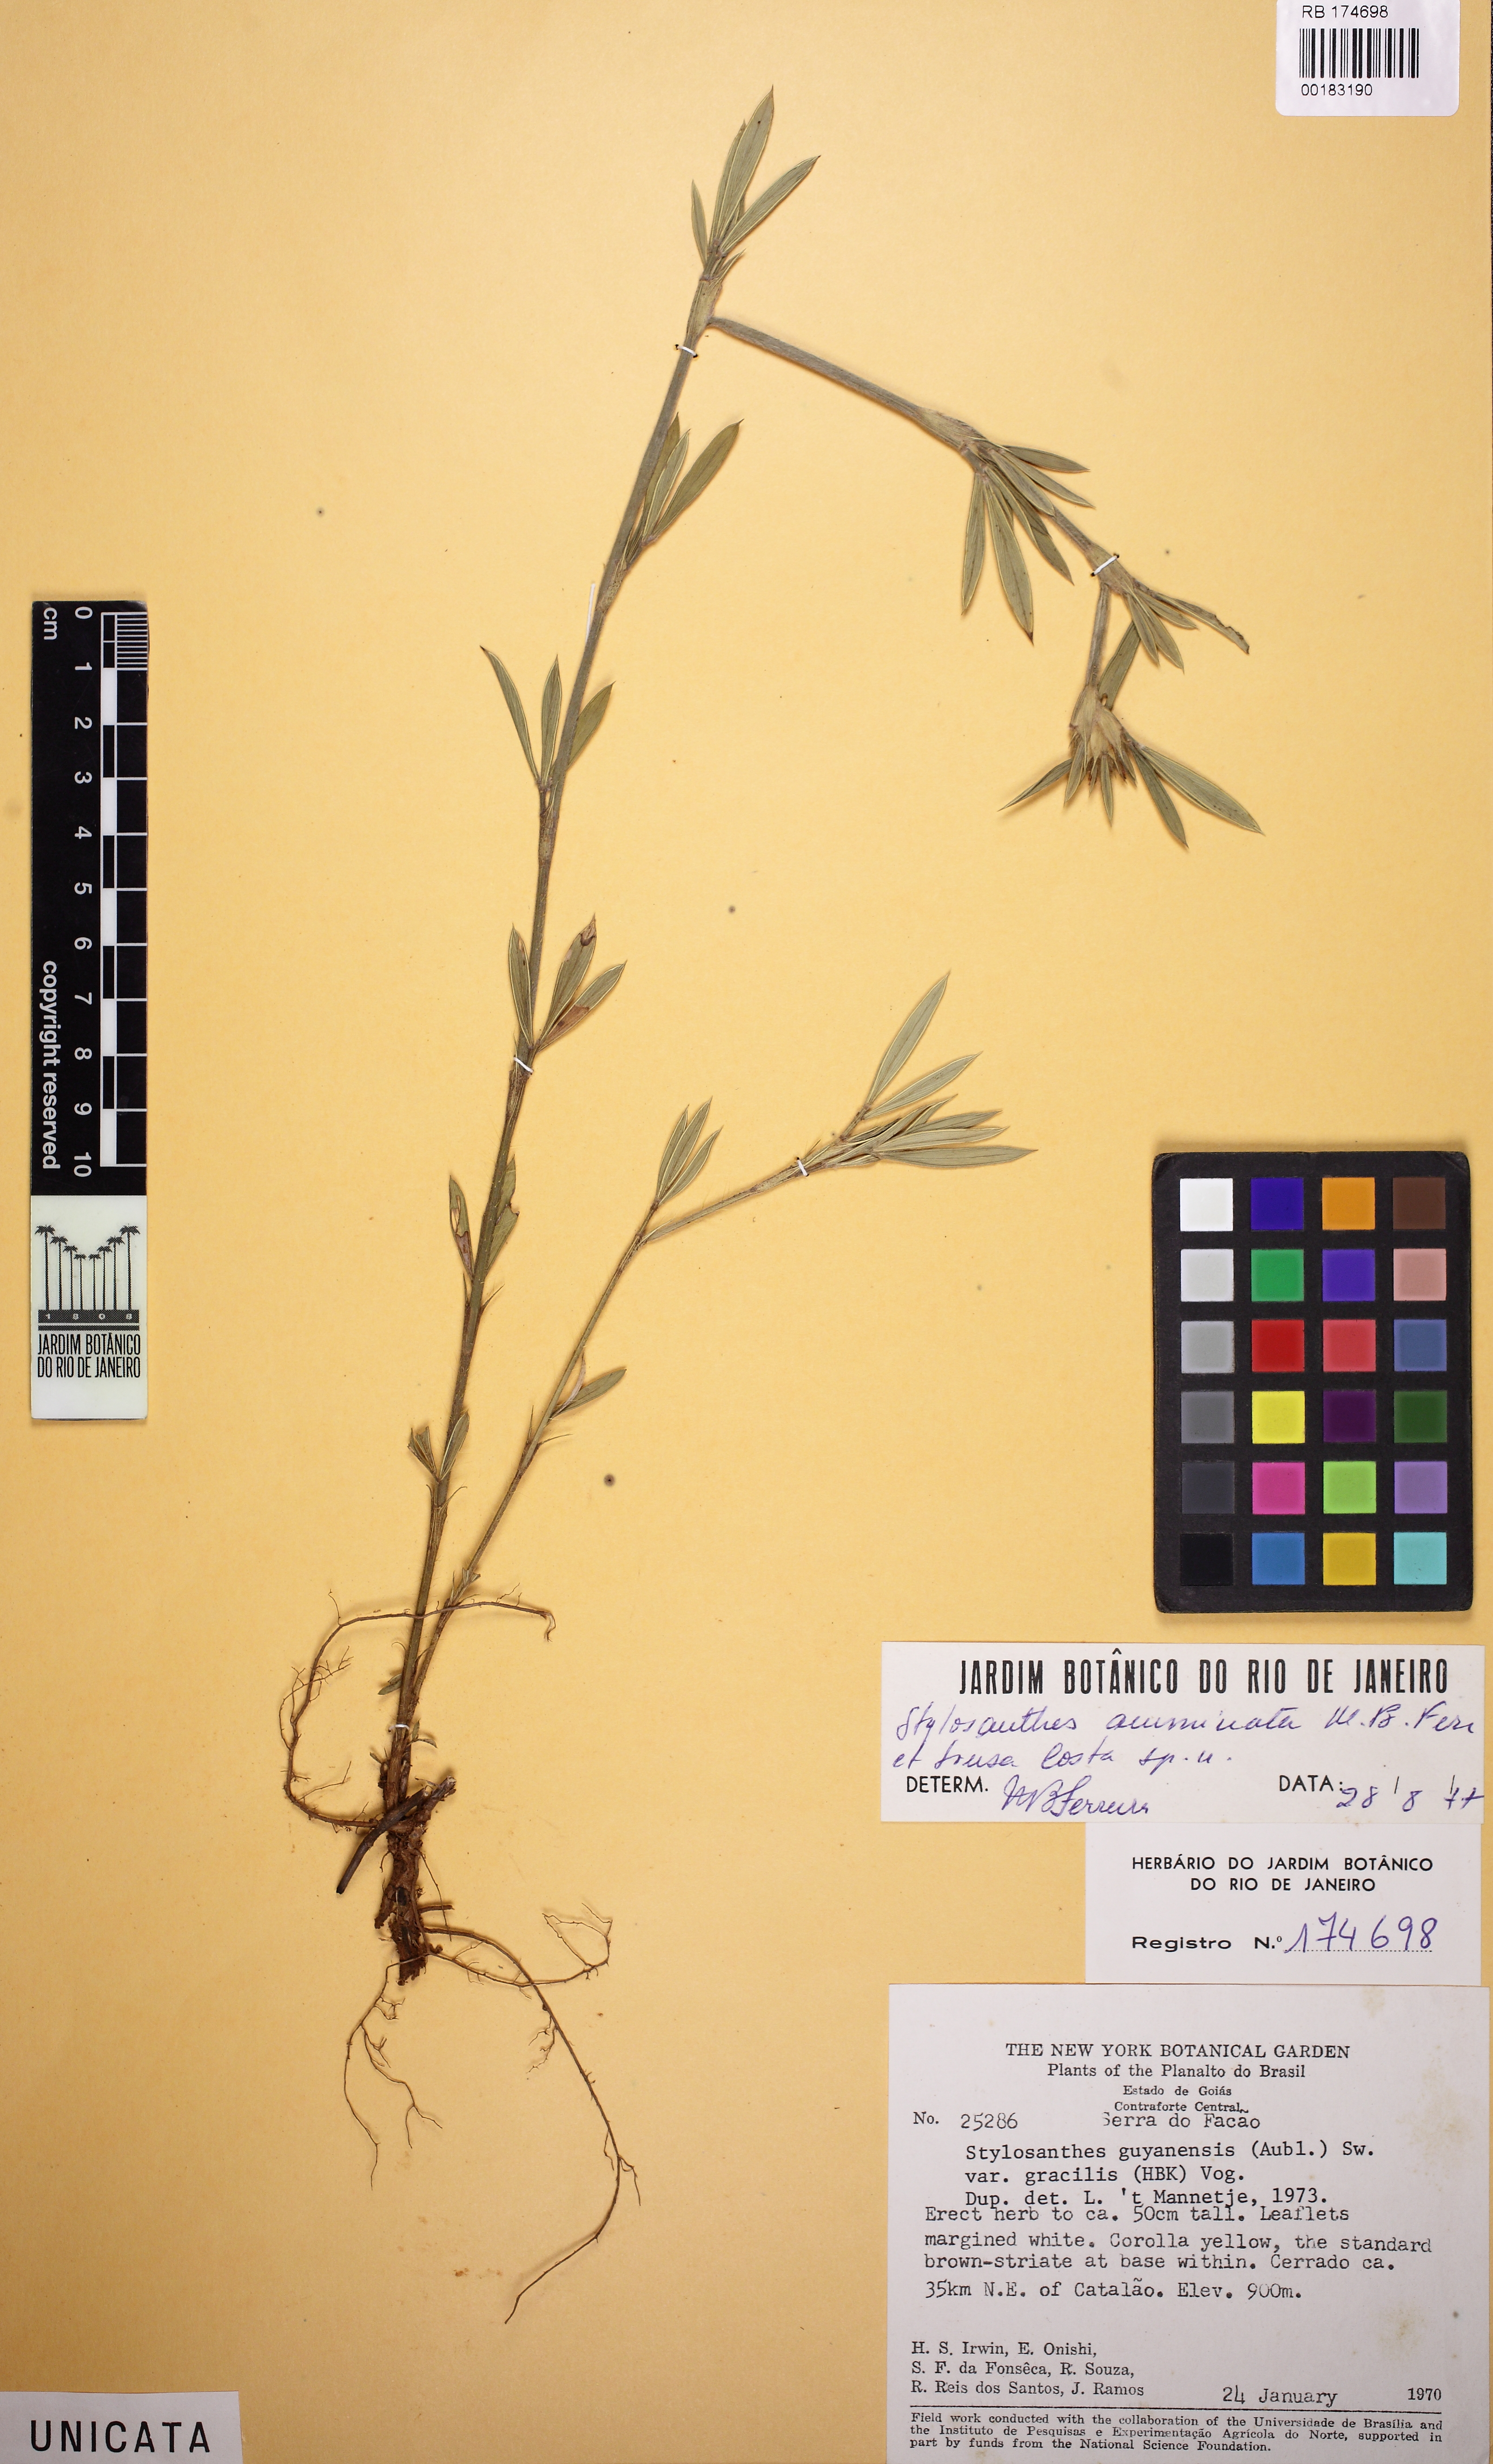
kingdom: Plantae
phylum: Tracheophyta
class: Magnoliopsida
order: Fabales
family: Fabaceae
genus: Stylosanthes
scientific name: Stylosanthes guianensis
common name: Pencil flower
